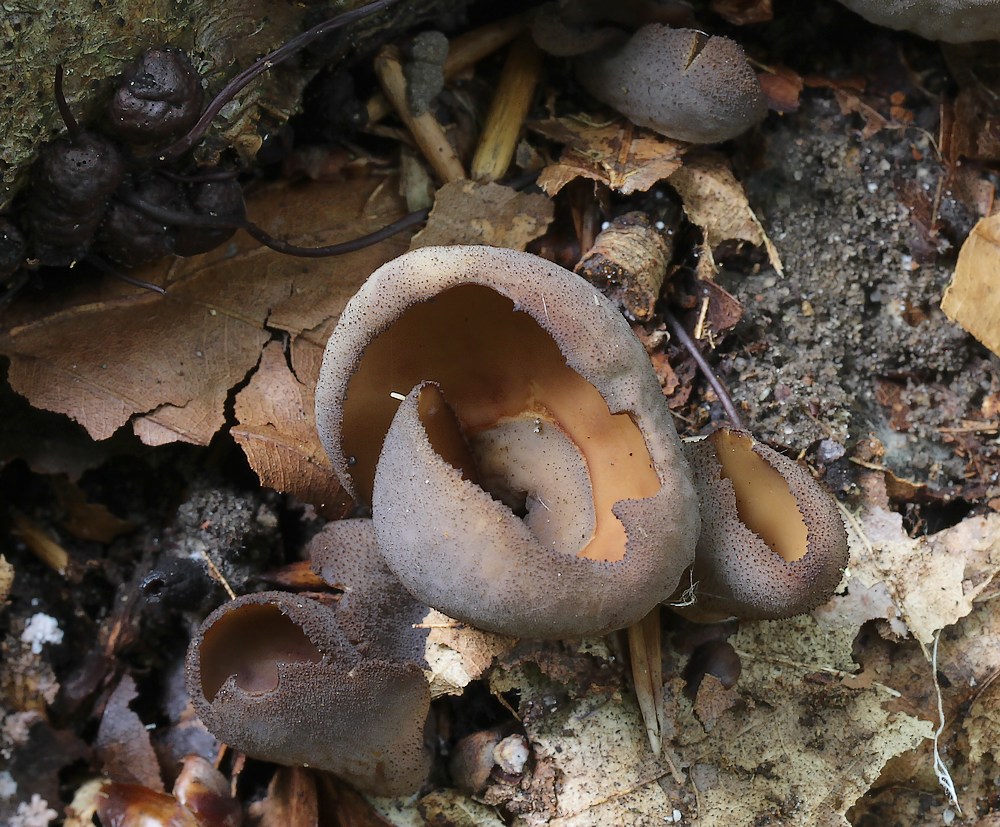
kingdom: Fungi
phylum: Ascomycota
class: Pezizomycetes
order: Pezizales
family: Otideaceae
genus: Otidea
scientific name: Otidea bufonia
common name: brun ørebæger
